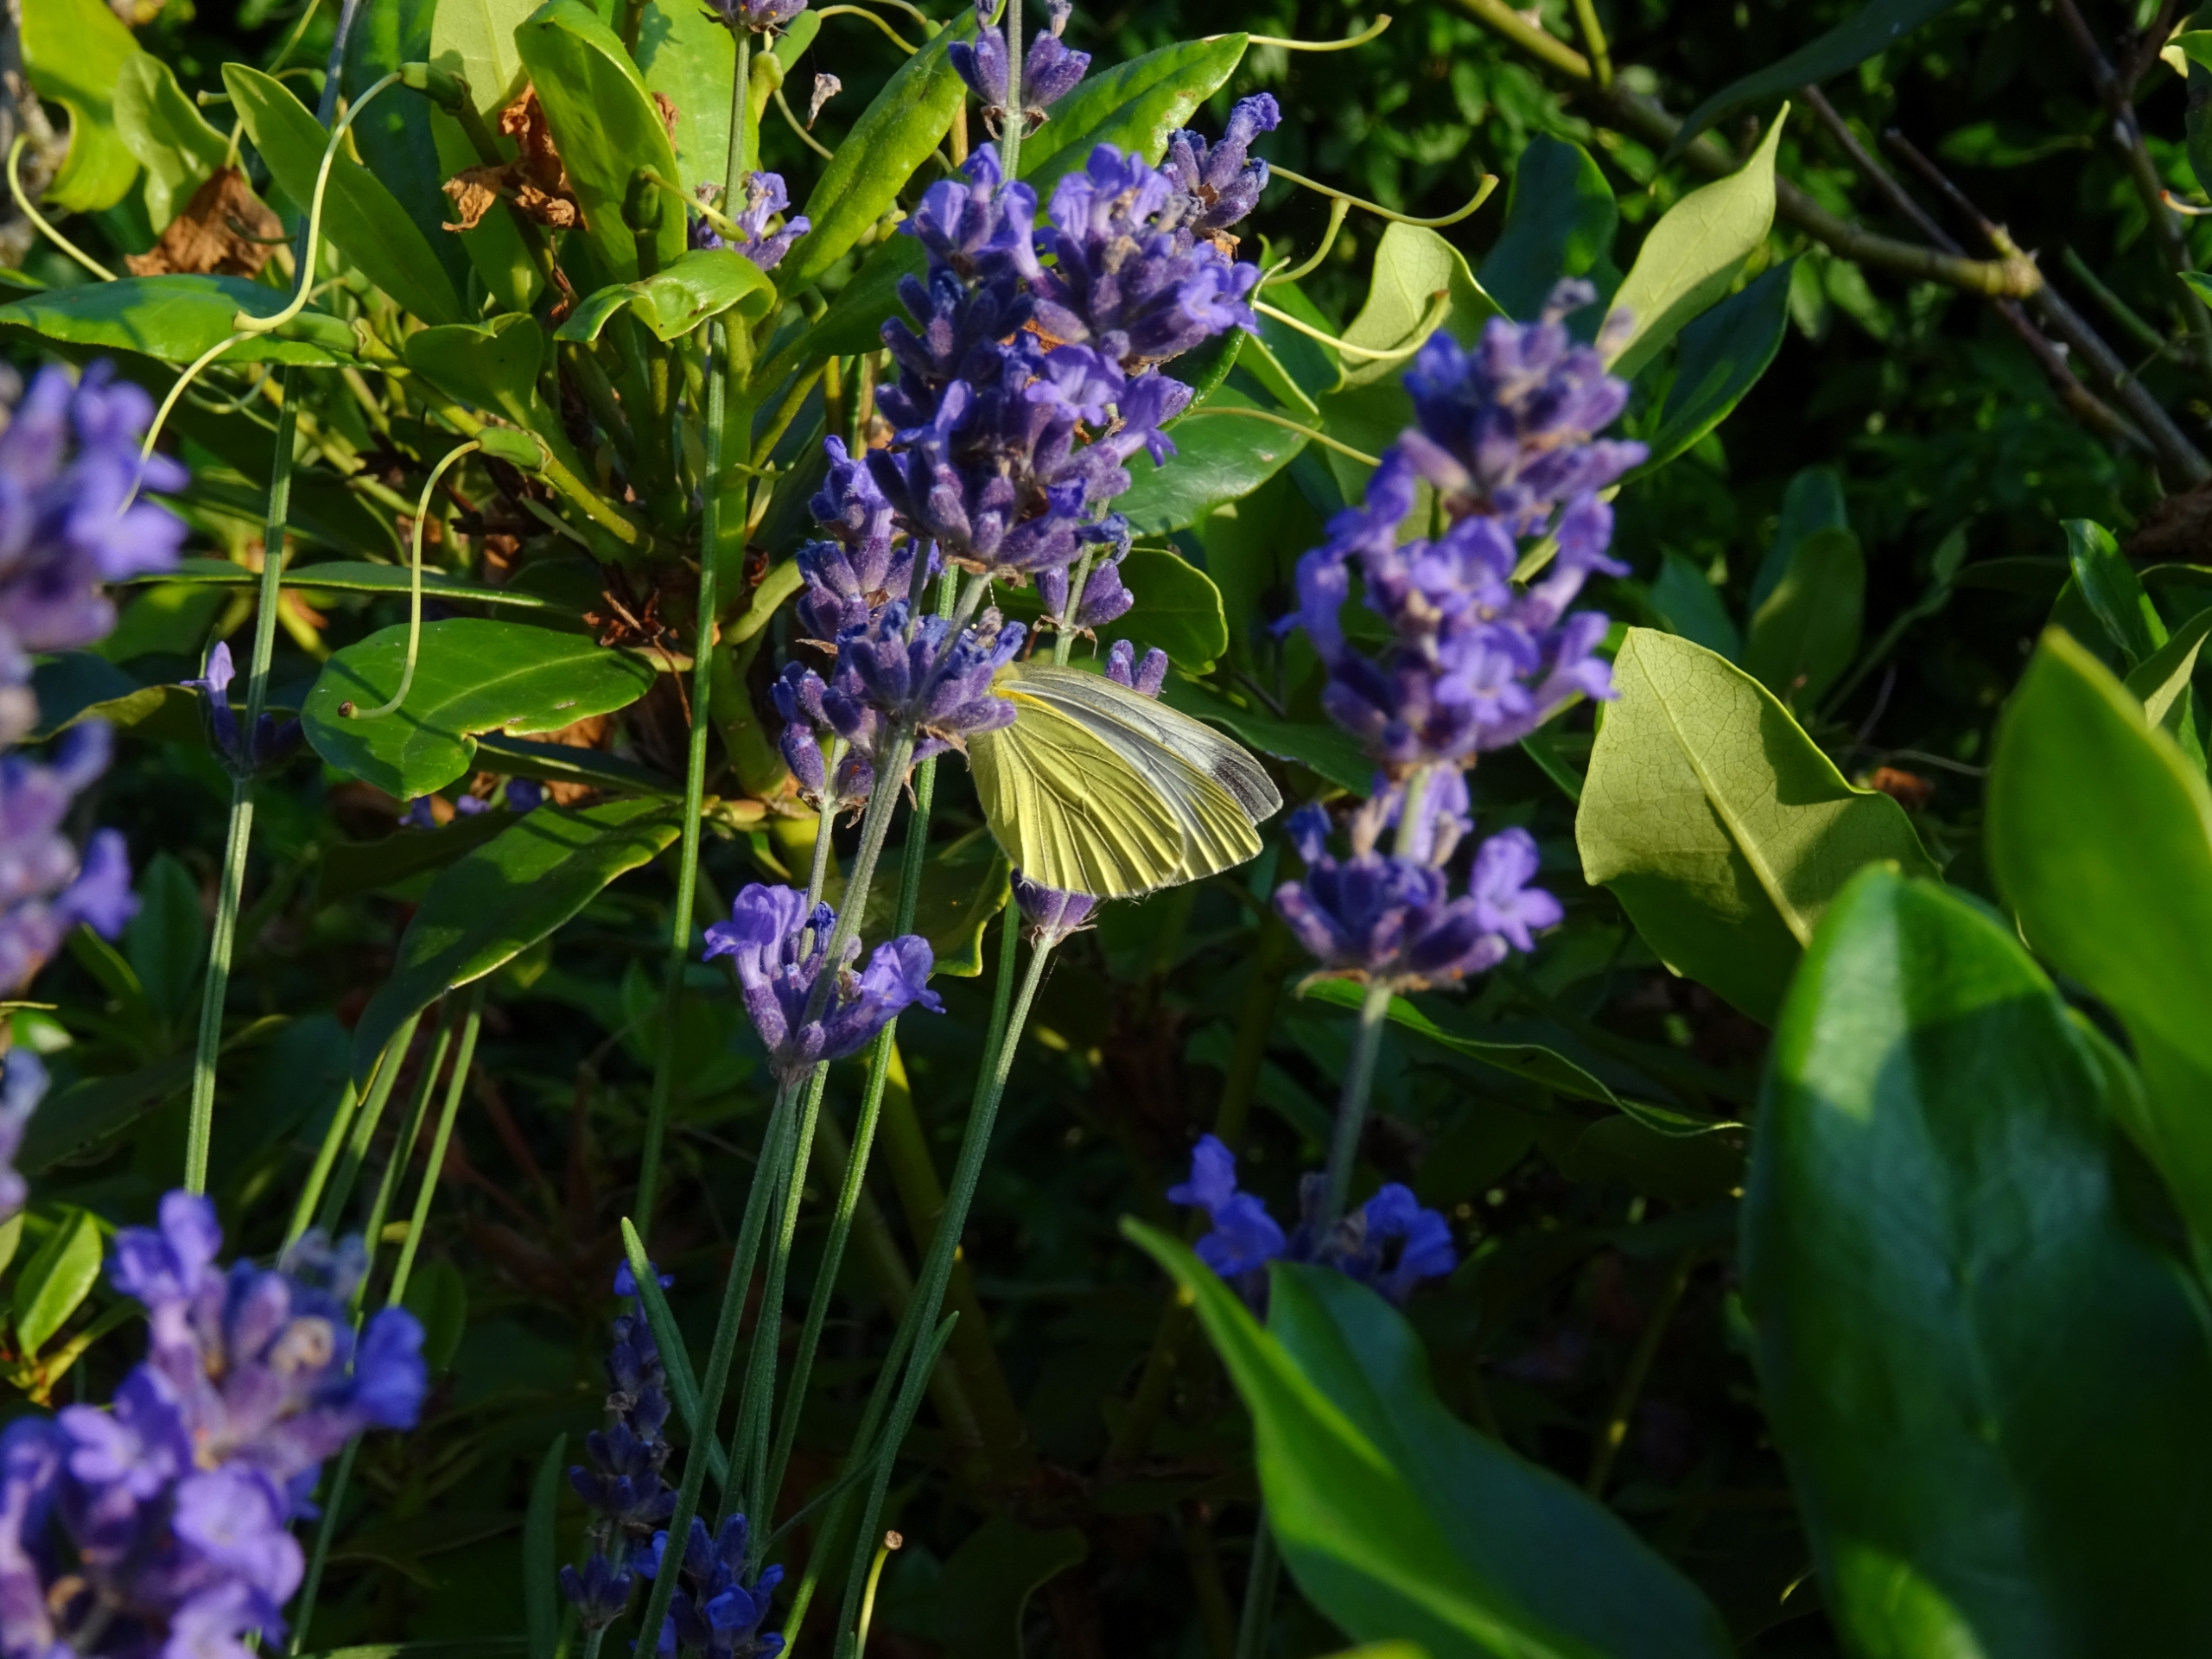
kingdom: Animalia
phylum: Arthropoda
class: Insecta
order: Lepidoptera
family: Pieridae
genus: Pieris
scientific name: Pieris napi
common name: Grønåret kålsommerfugl
